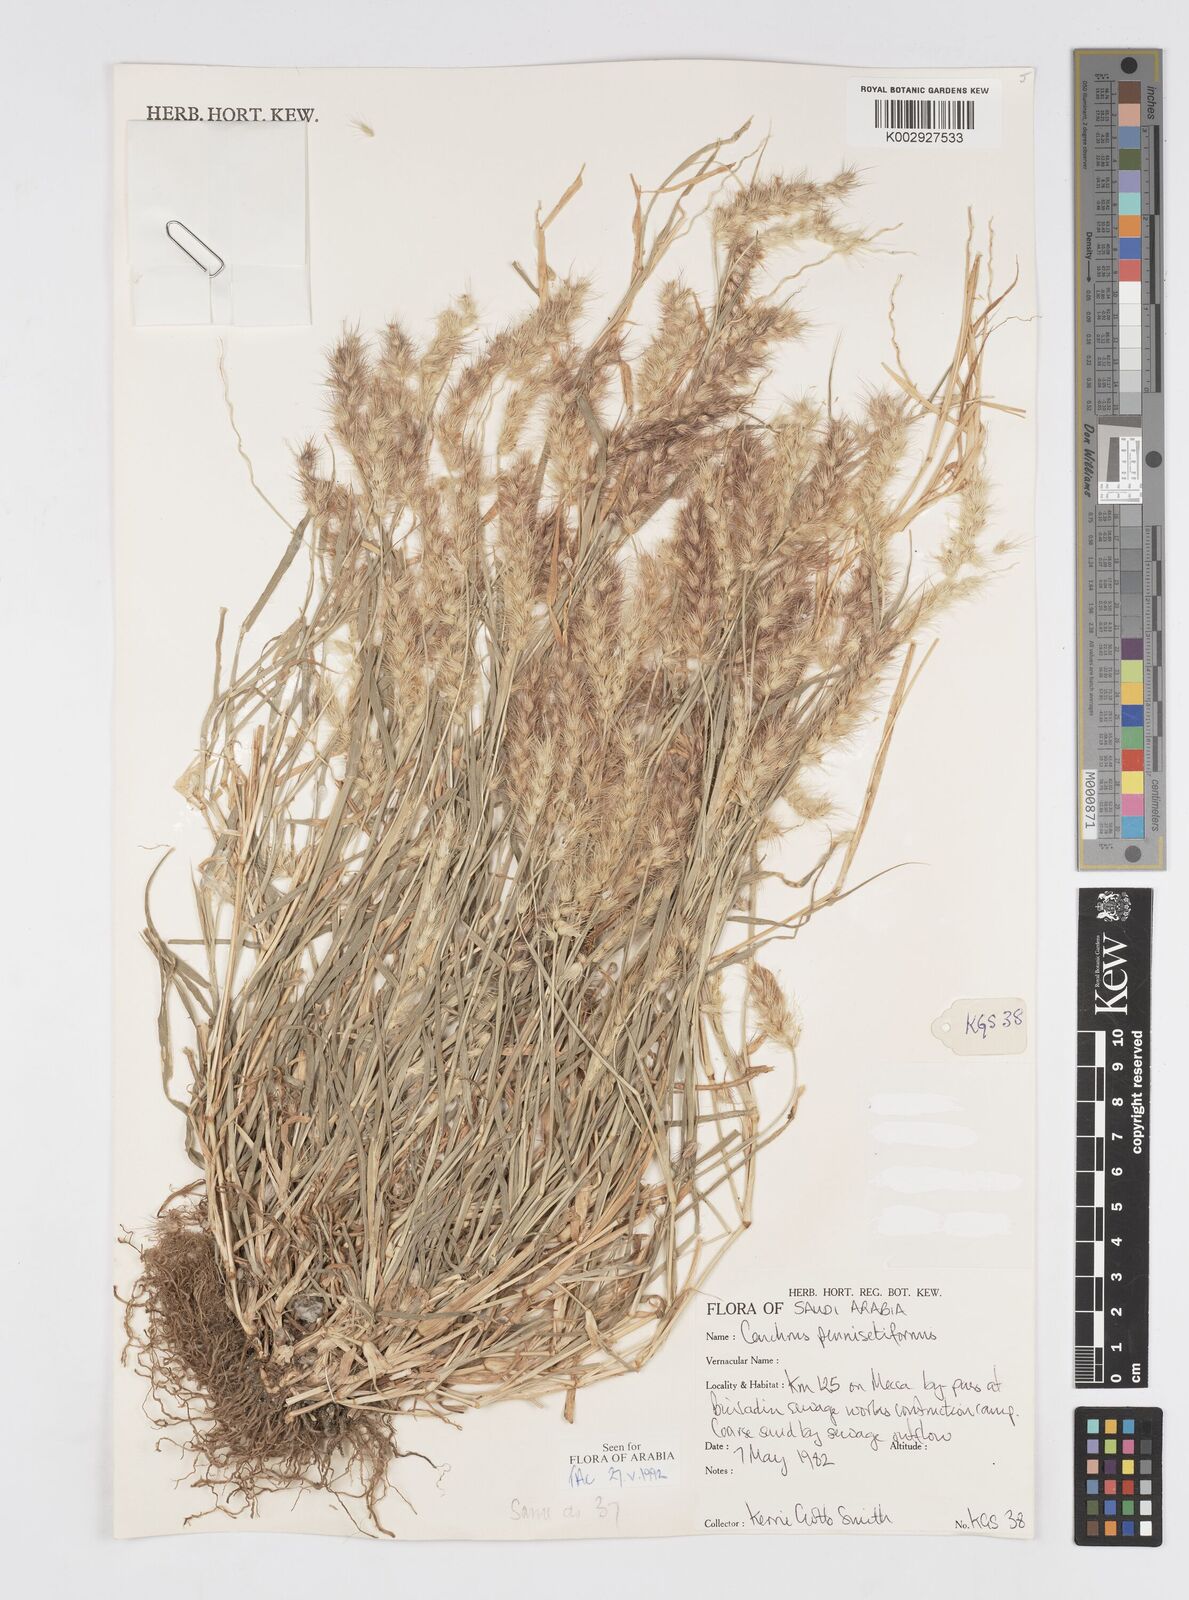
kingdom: Plantae
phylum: Tracheophyta
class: Liliopsida
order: Poales
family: Poaceae
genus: Cenchrus
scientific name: Cenchrus
